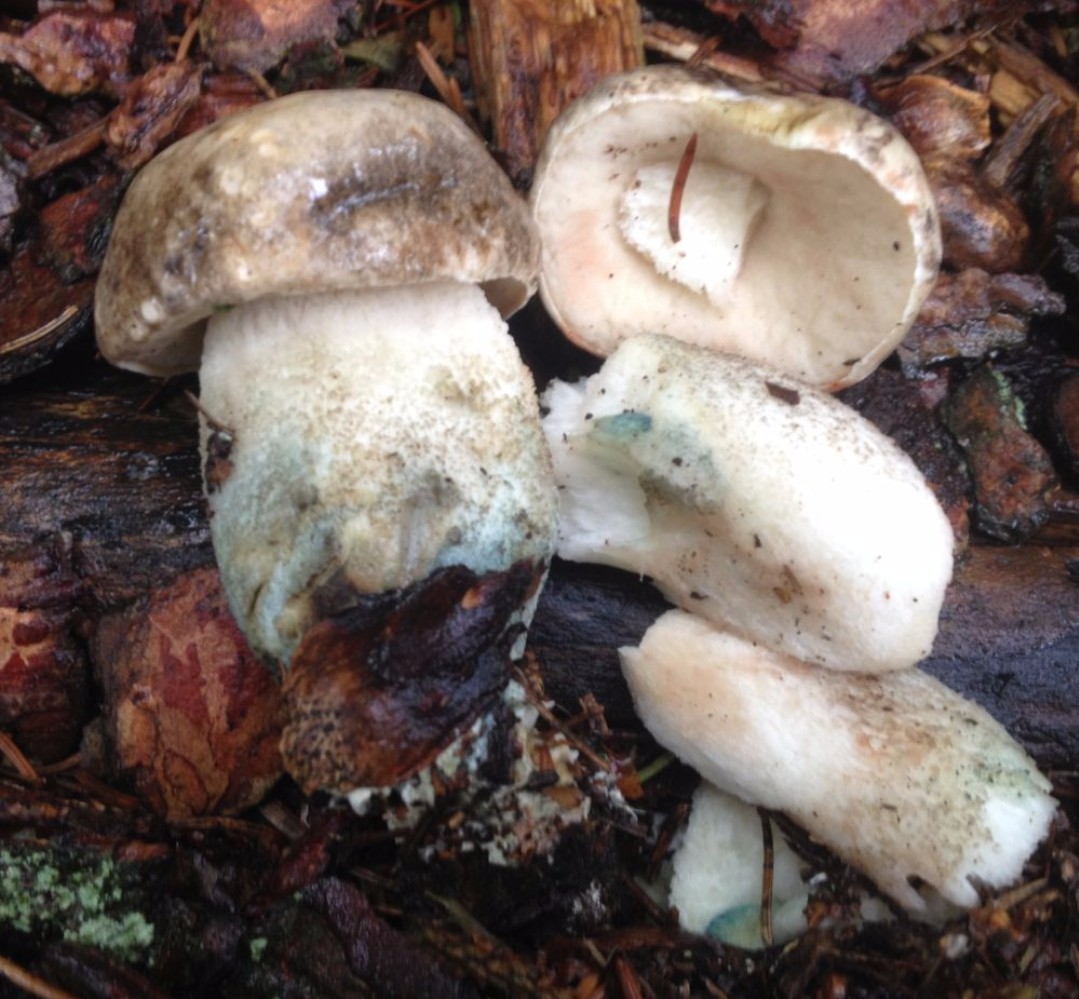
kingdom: Fungi
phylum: Basidiomycota
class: Agaricomycetes
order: Boletales
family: Boletaceae
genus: Leccinum
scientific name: Leccinum variicolor
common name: flammet skælrørhat
